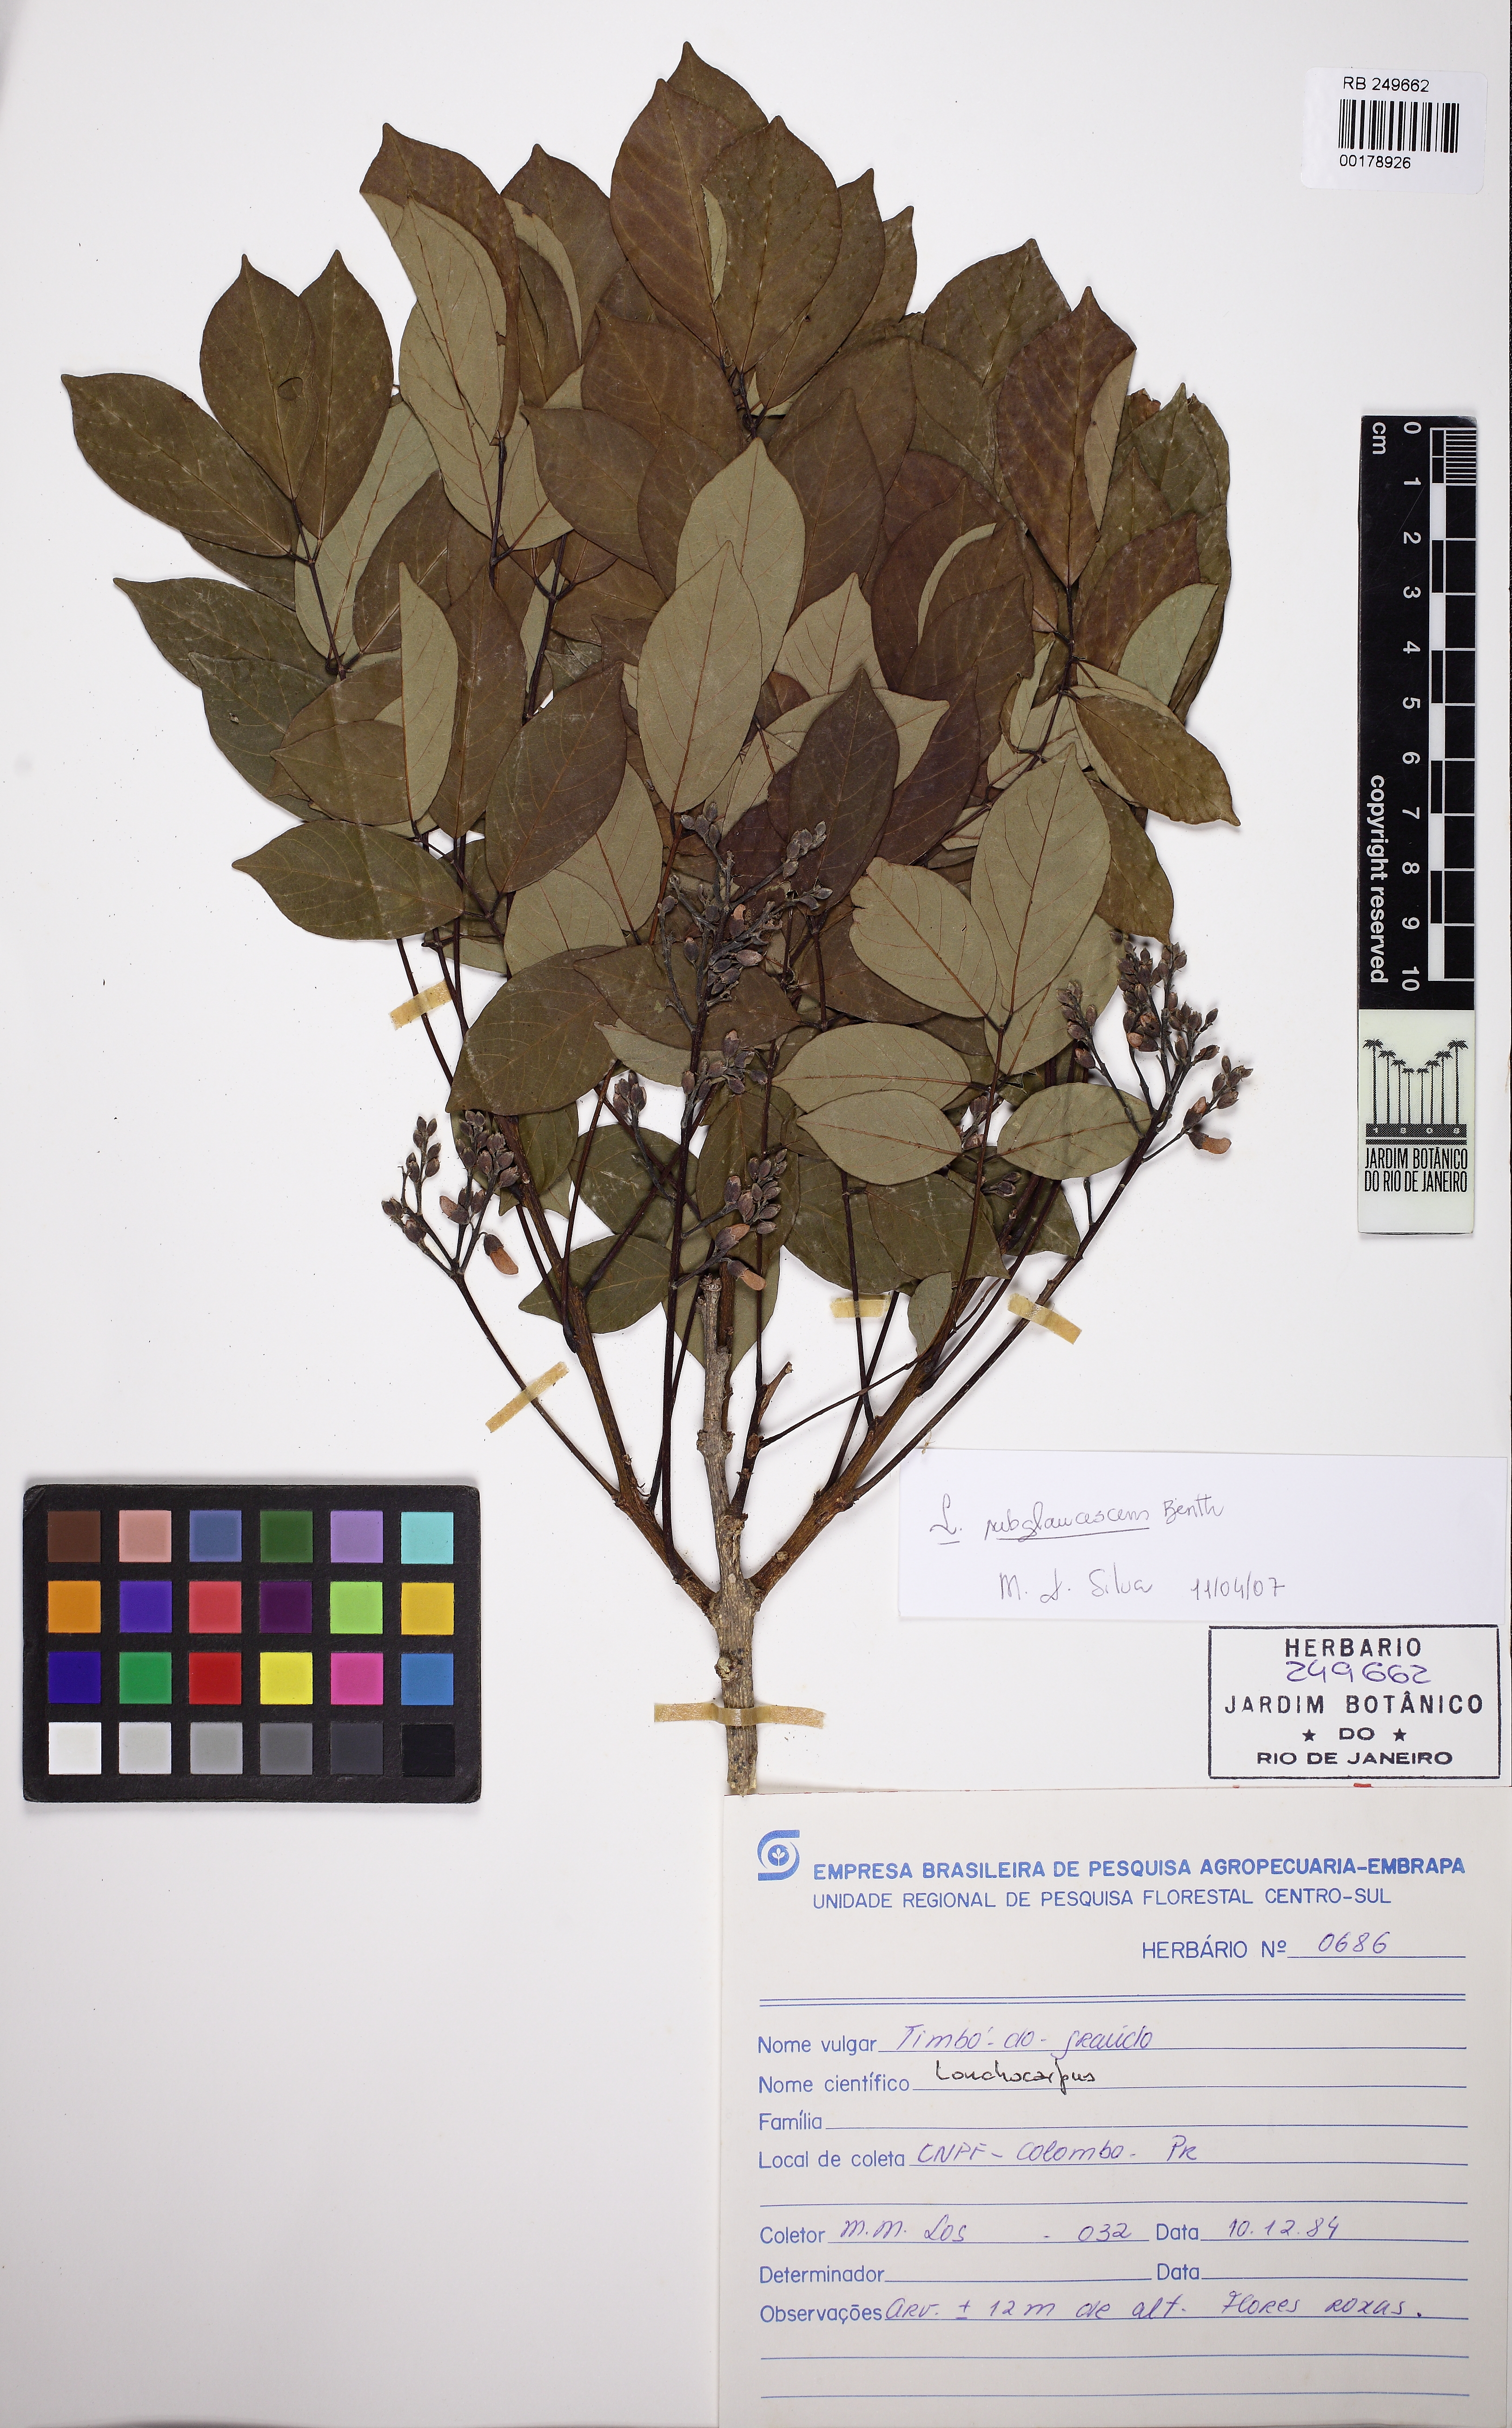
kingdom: Plantae
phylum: Tracheophyta
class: Magnoliopsida
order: Fabales
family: Fabaceae
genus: Lonchocarpus
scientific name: Lonchocarpus pluvialis
